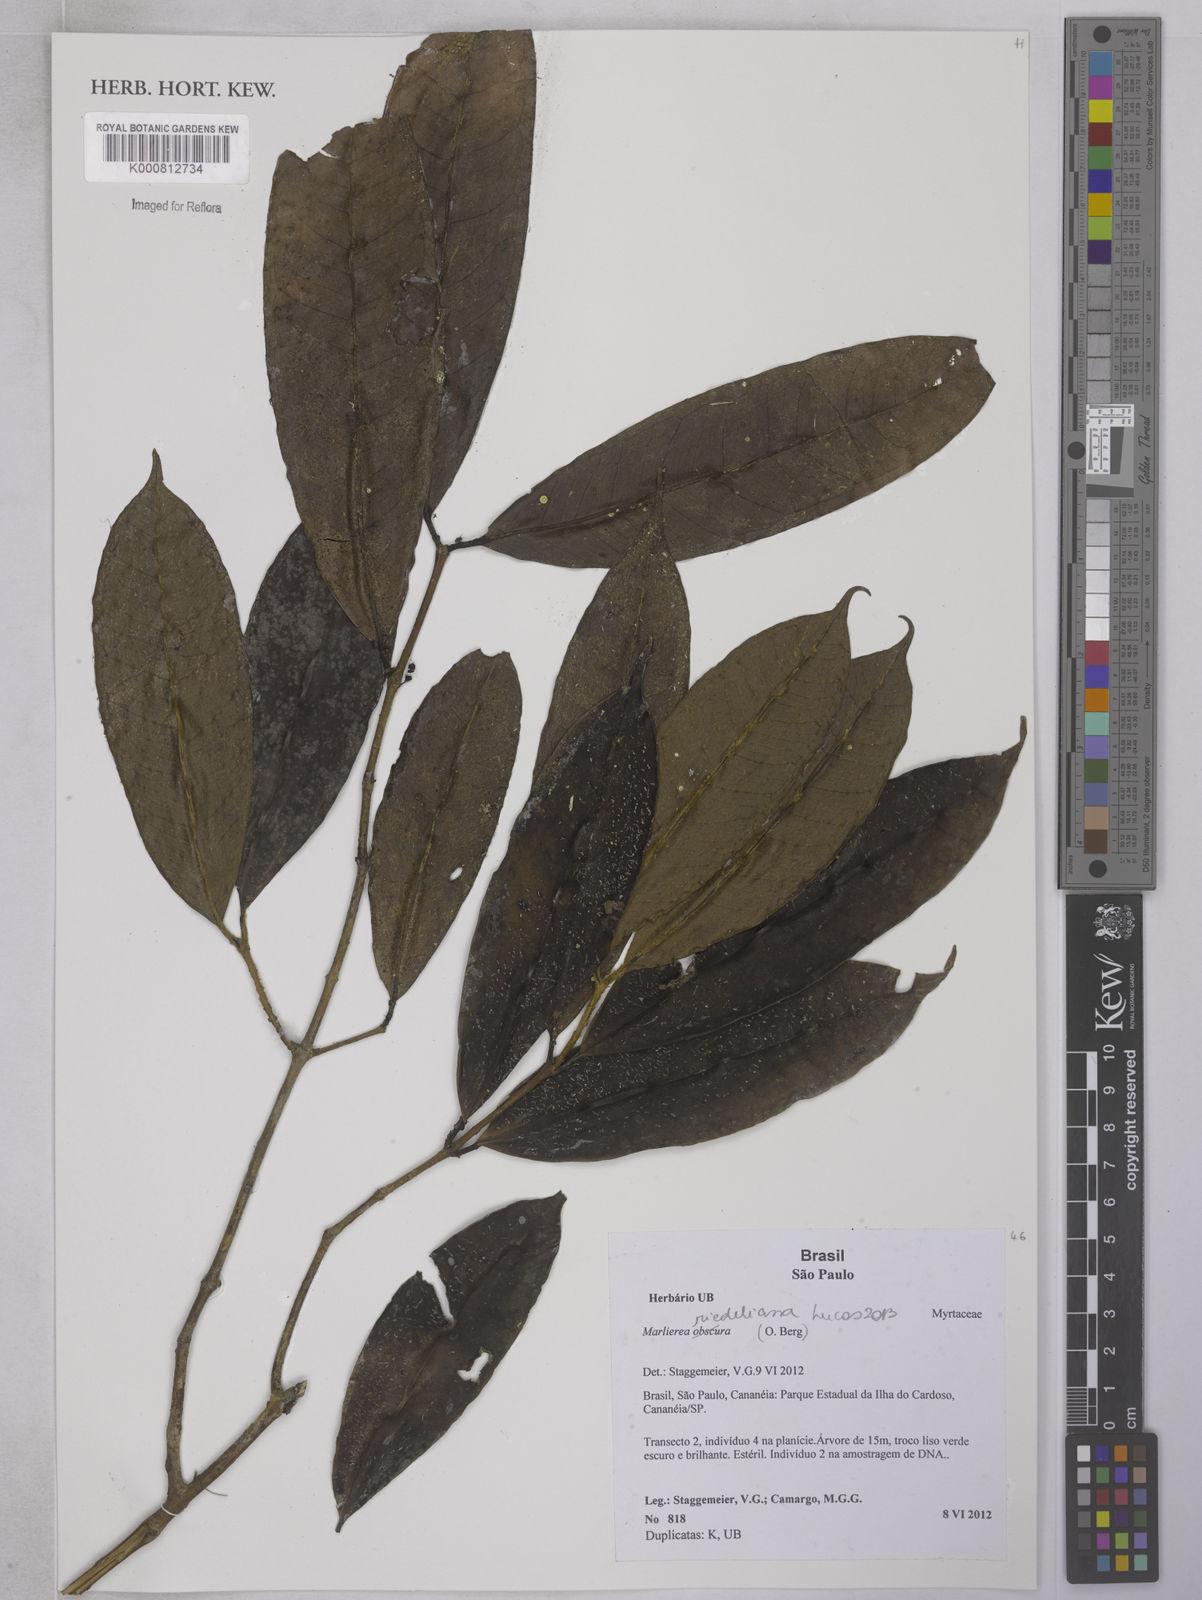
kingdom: Plantae
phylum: Tracheophyta
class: Magnoliopsida
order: Myrtales
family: Myrtaceae
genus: Myrcia
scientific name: Myrcia neoriedeliana
